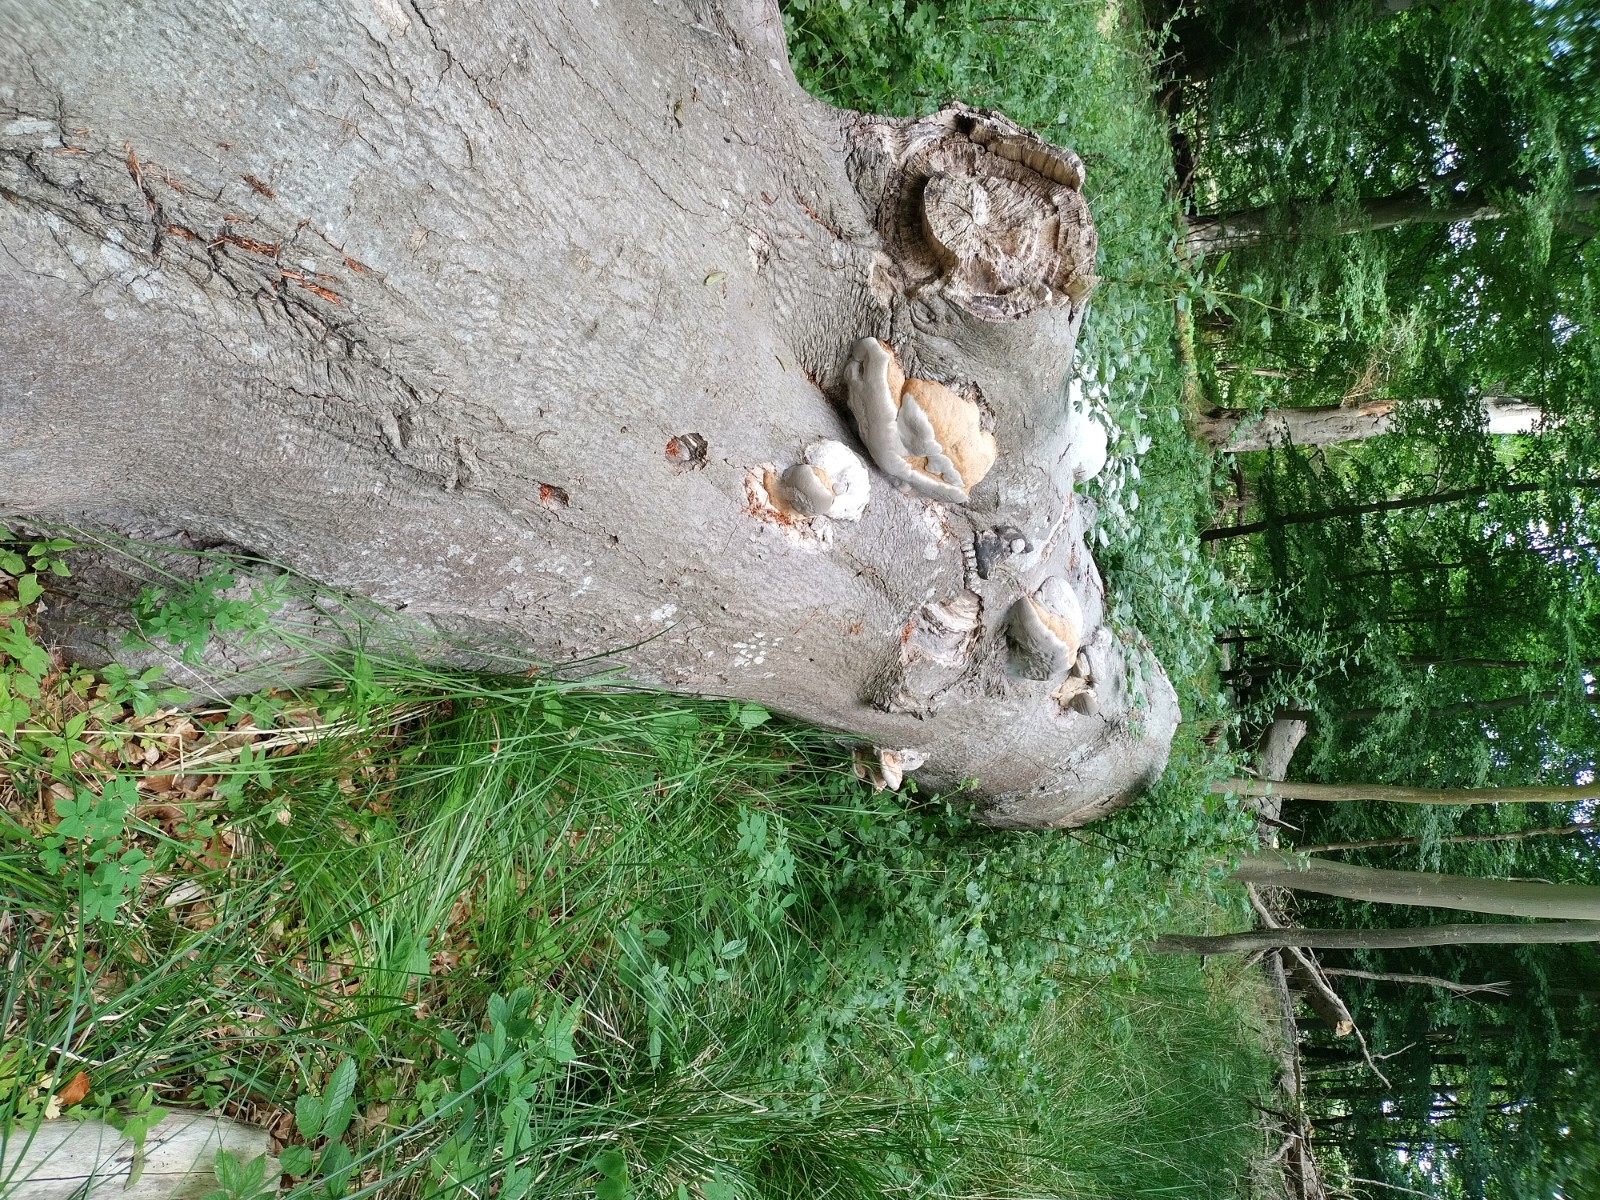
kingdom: Fungi
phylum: Basidiomycota
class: Agaricomycetes
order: Polyporales
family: Polyporaceae
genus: Fomes
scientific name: Fomes fomentarius
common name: tøndersvamp
